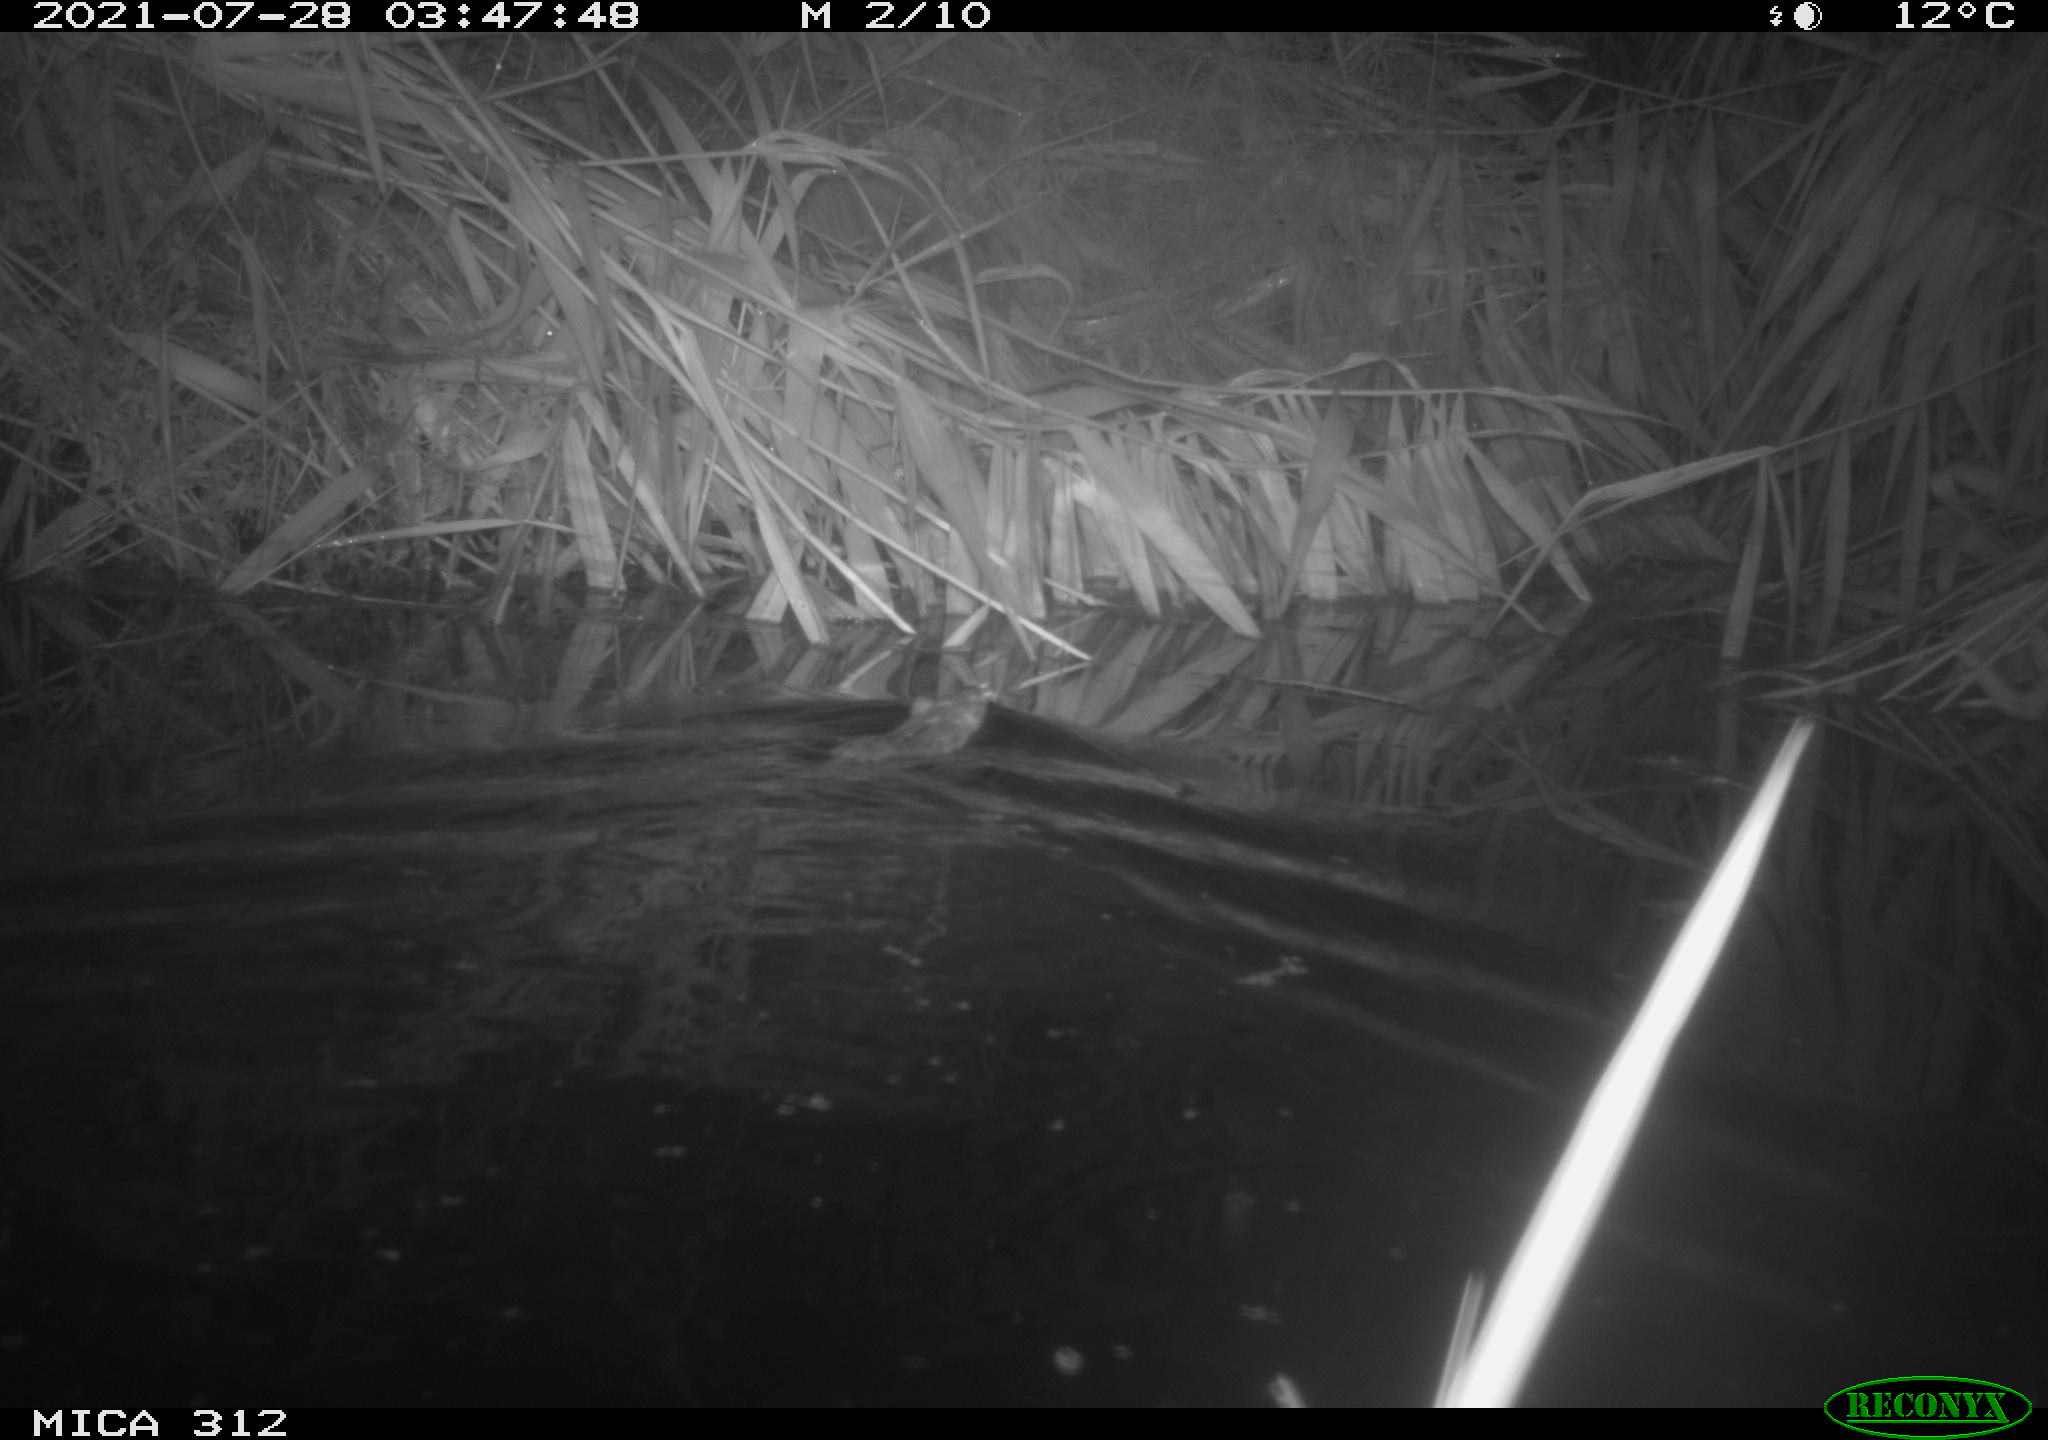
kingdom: Animalia
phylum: Chordata
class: Mammalia
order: Rodentia
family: Muridae
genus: Rattus
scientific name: Rattus norvegicus
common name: Brown rat
